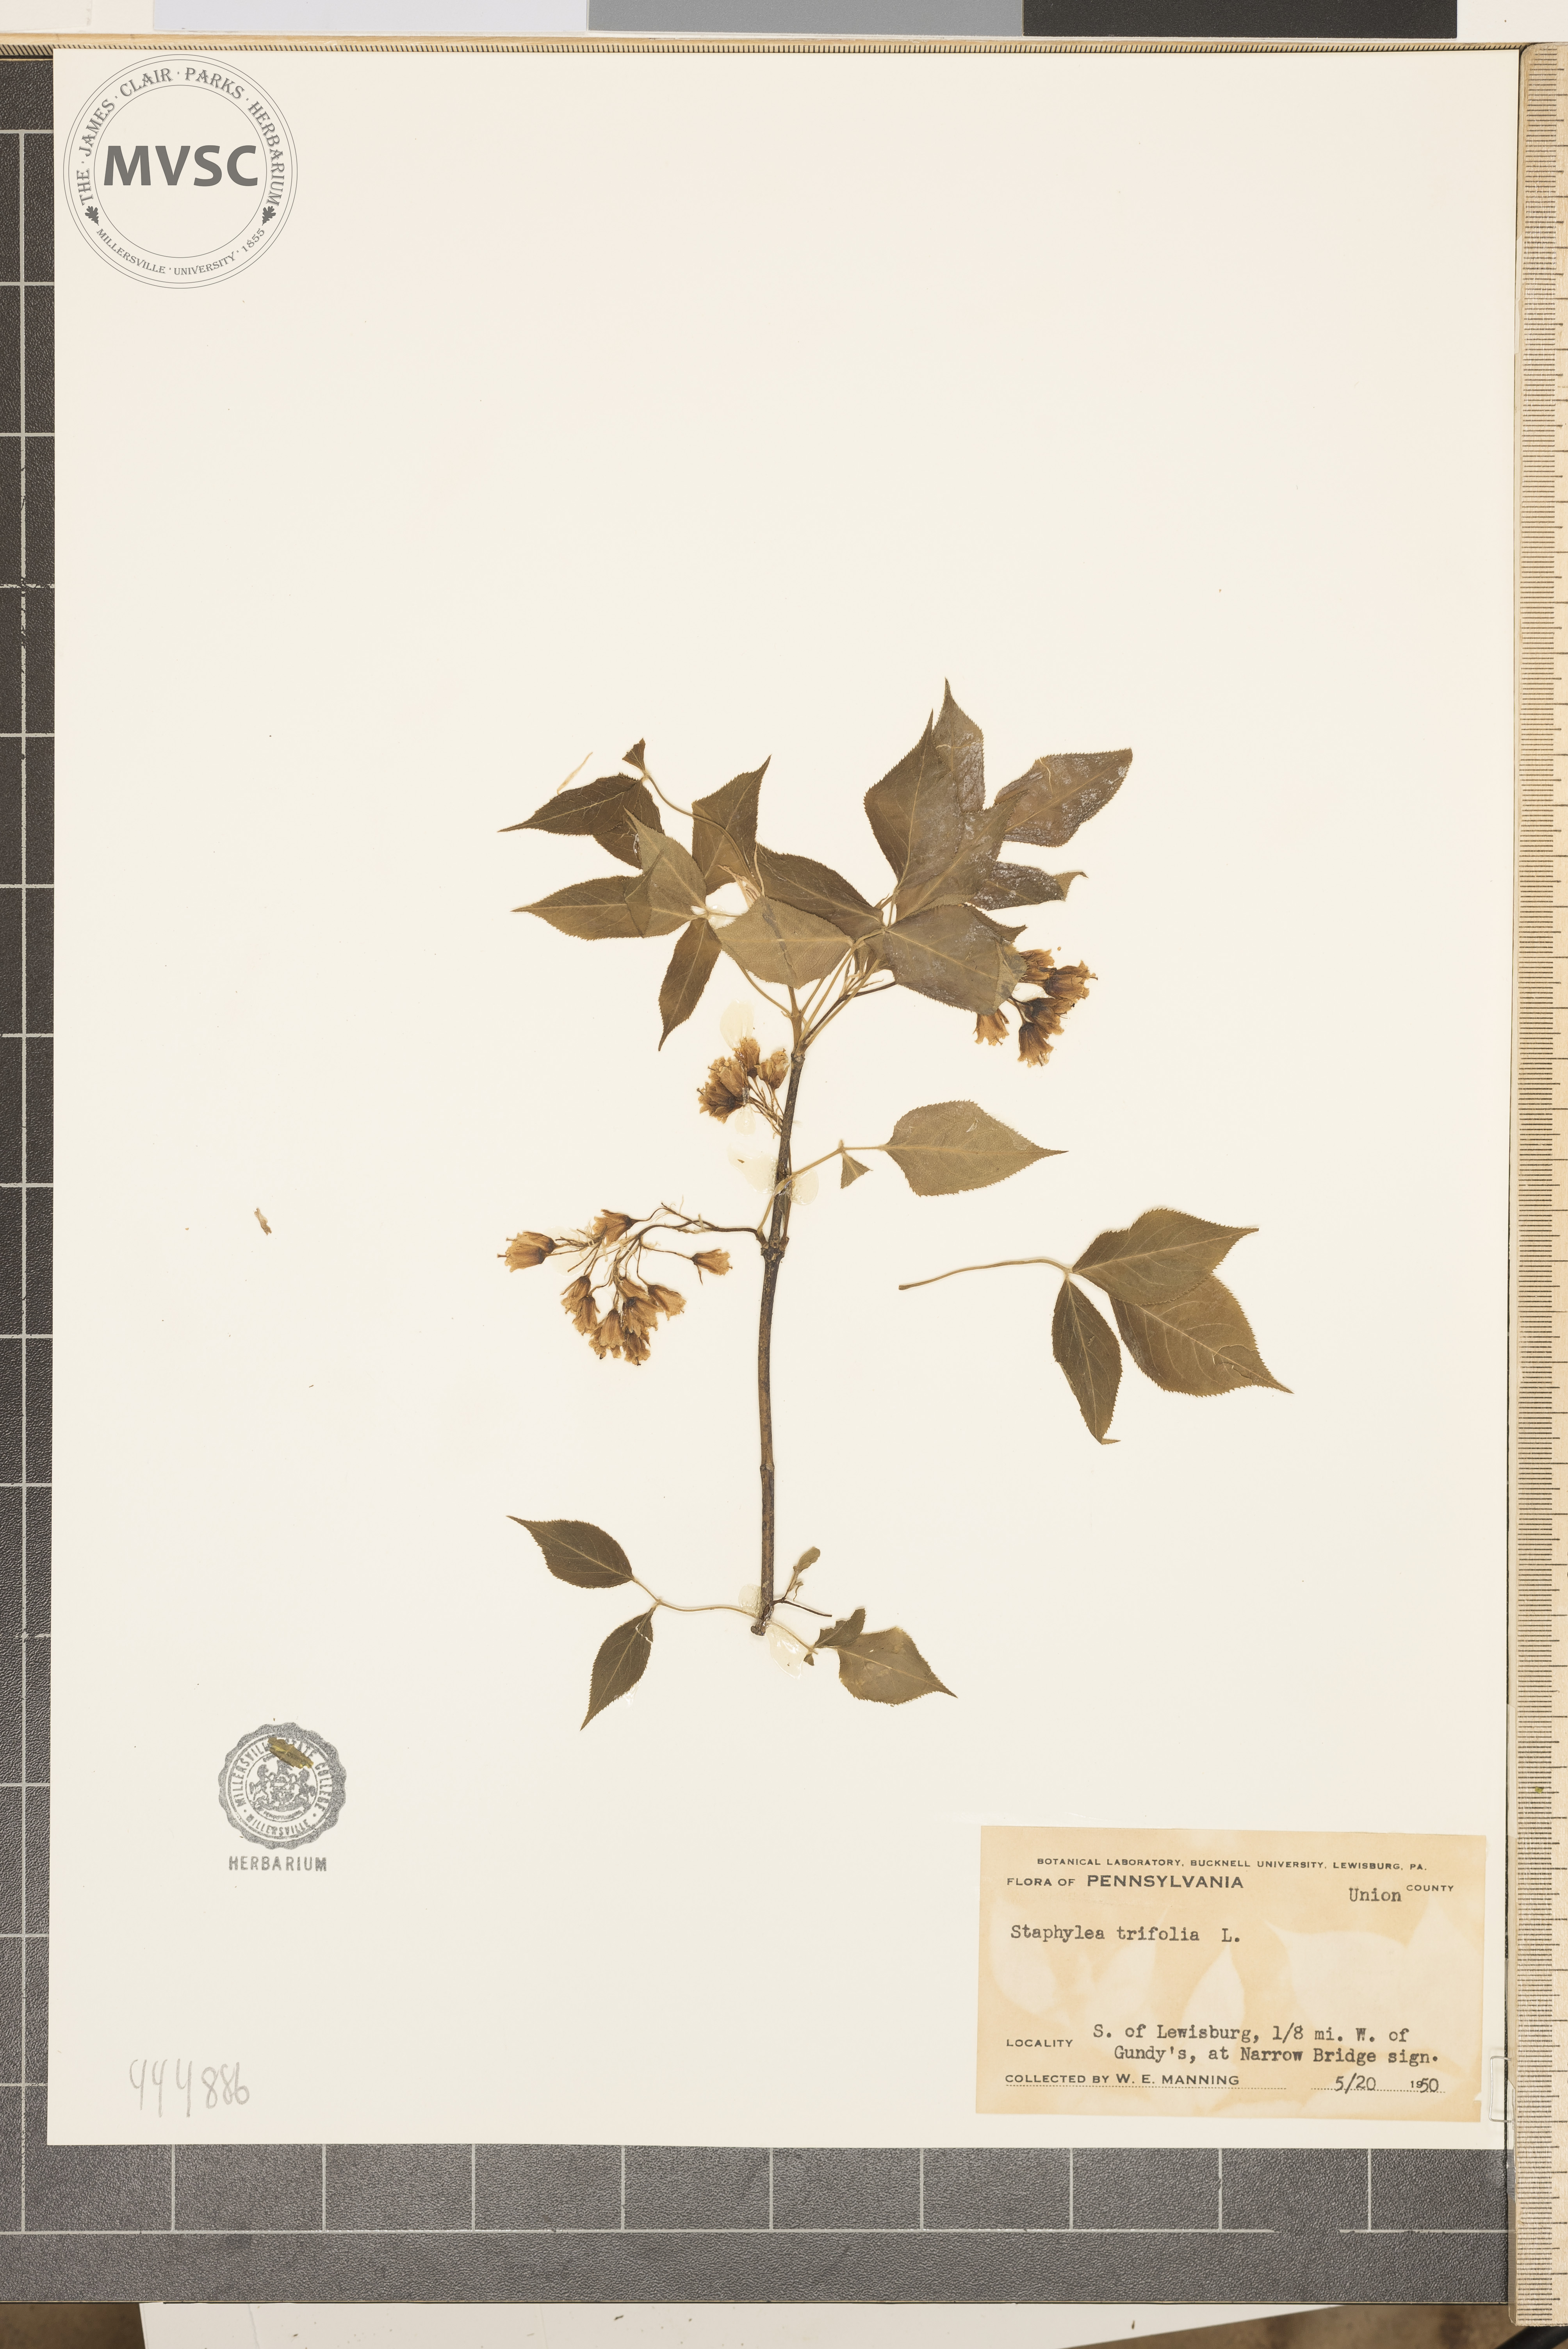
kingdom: Plantae
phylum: Tracheophyta
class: Magnoliopsida
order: Crossosomatales
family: Staphyleaceae
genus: Staphylea
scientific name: Staphylea trifolia
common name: American bladdernut
